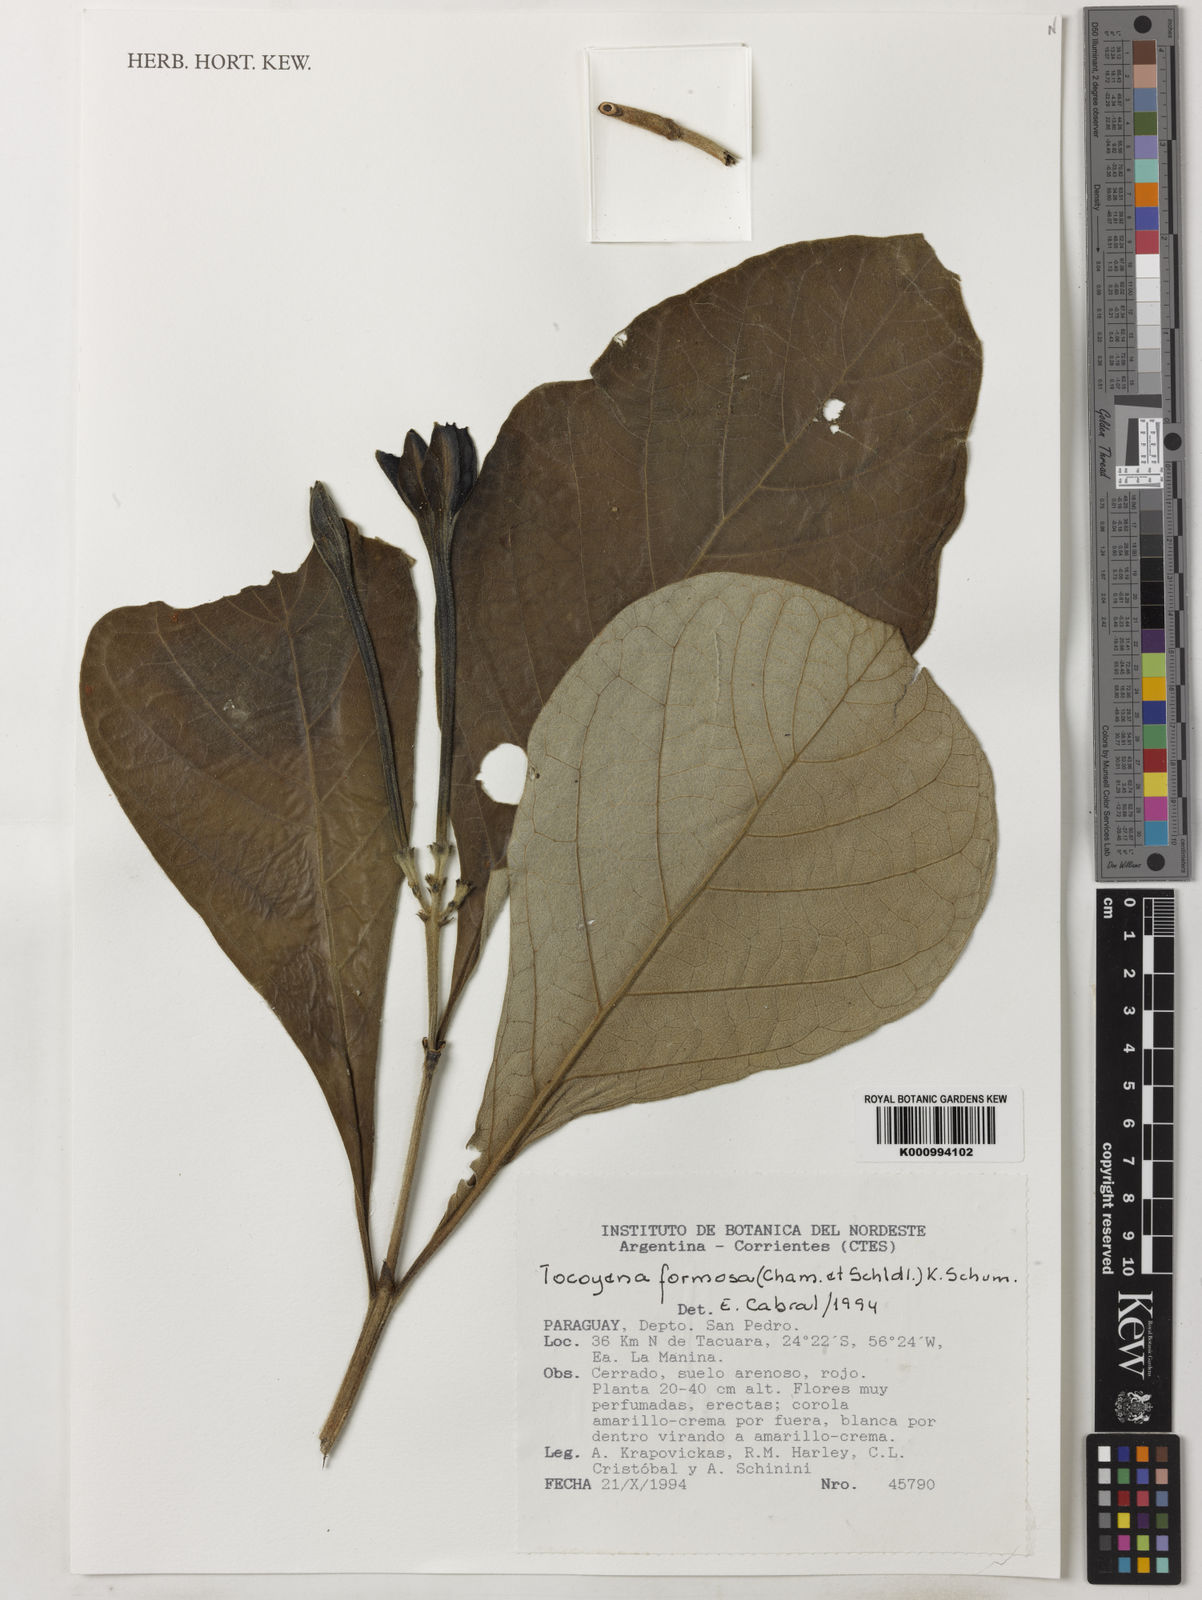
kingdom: Plantae
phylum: Tracheophyta
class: Magnoliopsida
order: Gentianales
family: Rubiaceae
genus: Tocoyena
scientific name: Tocoyena formosa
